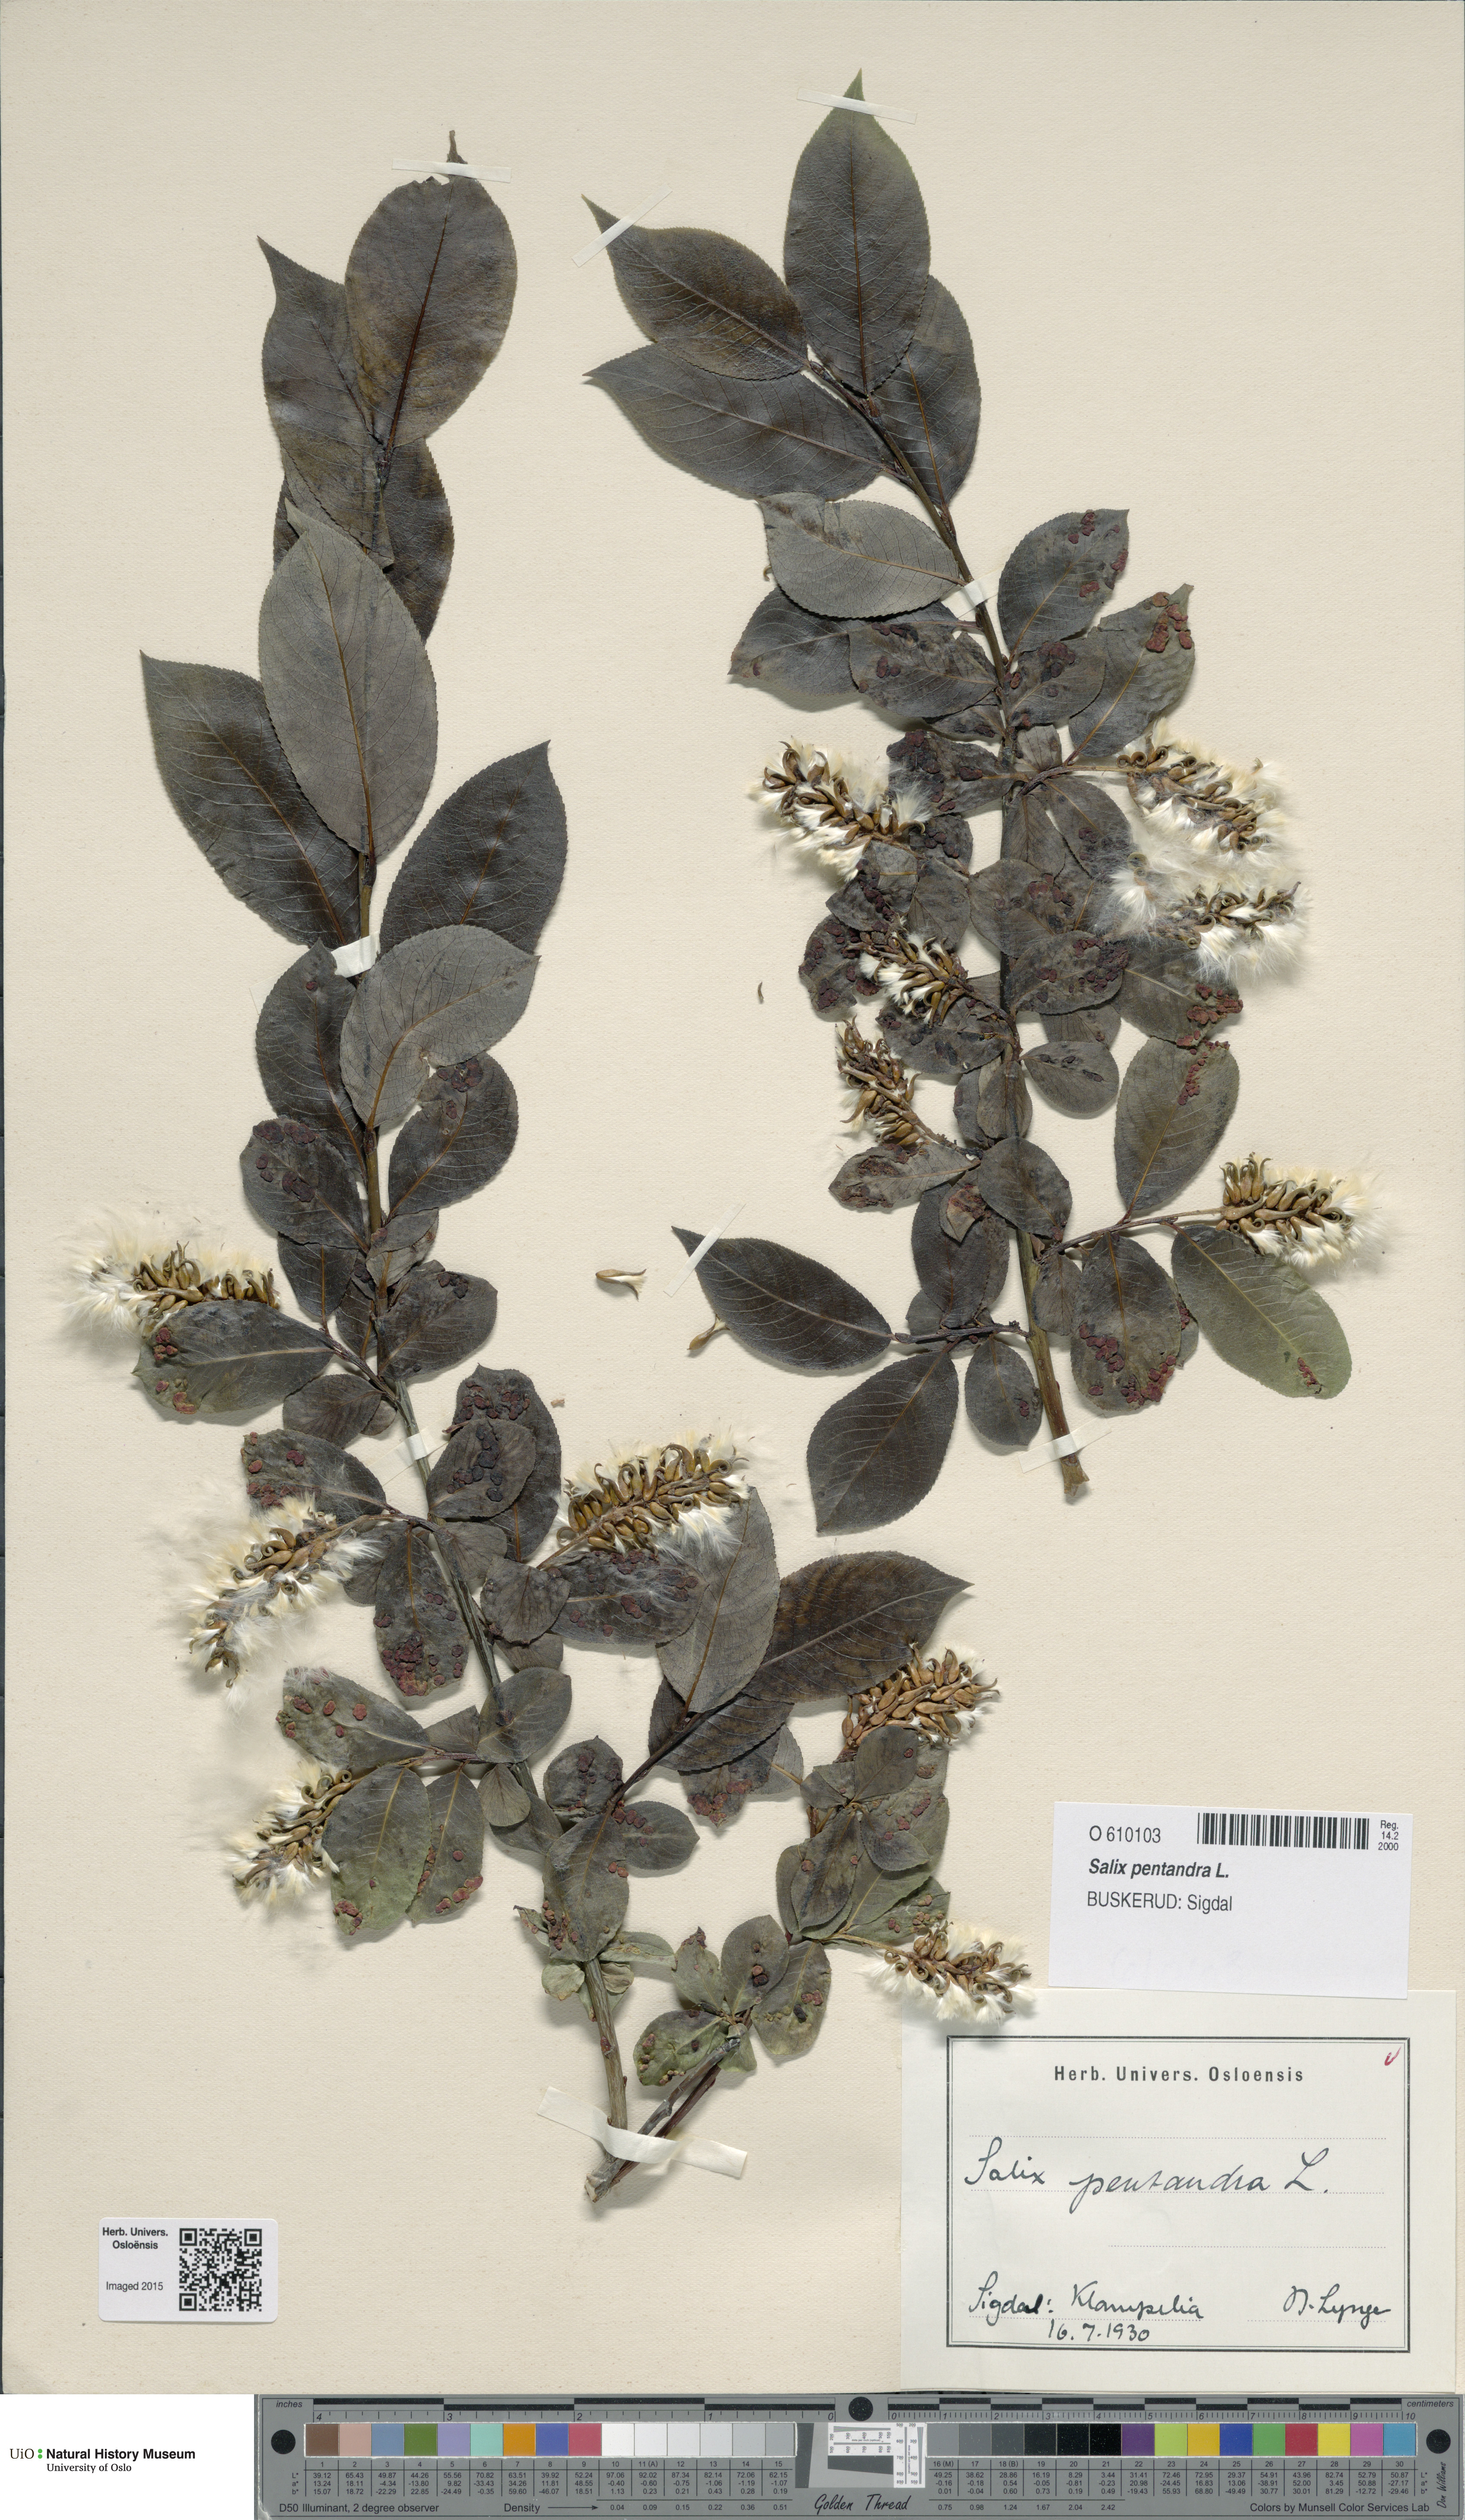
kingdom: Plantae
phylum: Tracheophyta
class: Magnoliopsida
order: Malpighiales
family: Salicaceae
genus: Salix
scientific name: Salix pentandra
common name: Bay willow
